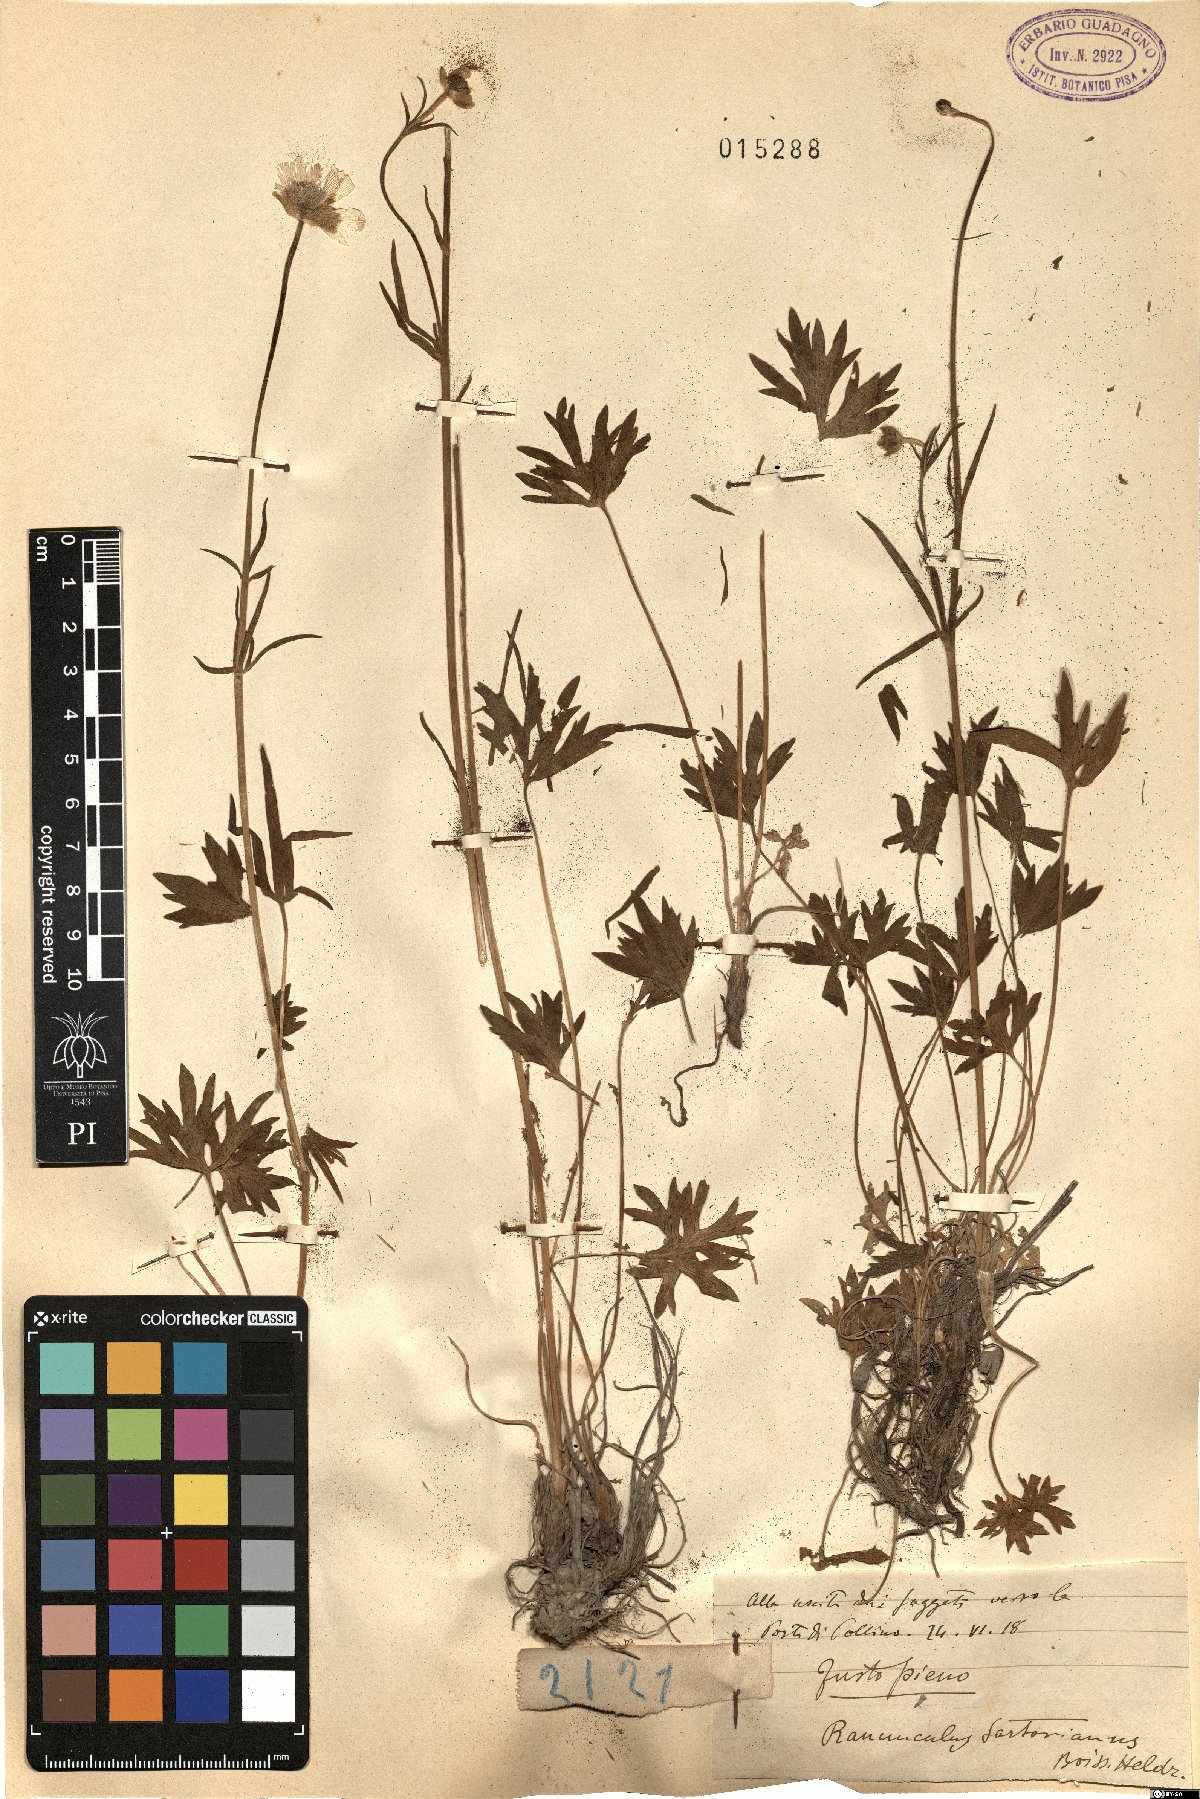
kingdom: Plantae
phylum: Tracheophyta
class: Magnoliopsida
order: Ranunculales
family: Ranunculaceae
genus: Ranunculus
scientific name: Ranunculus sartorianus
